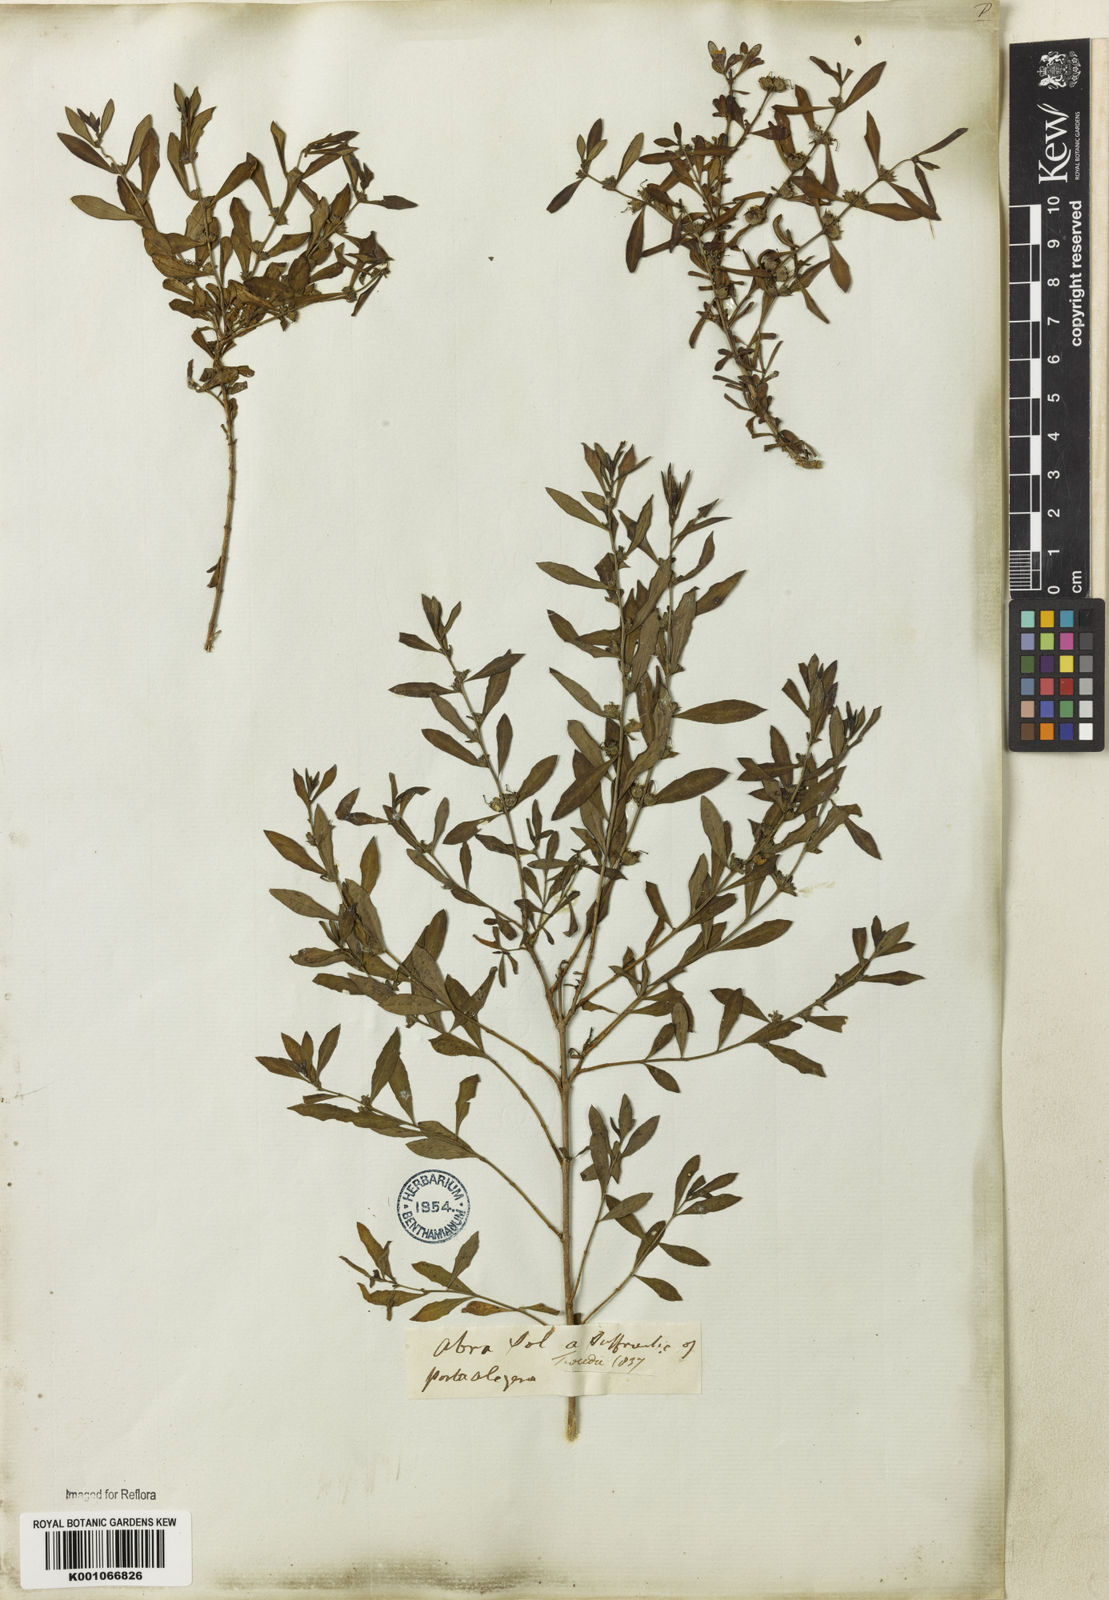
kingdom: Plantae
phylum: Tracheophyta
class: Magnoliopsida
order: Myrtales
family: Lythraceae
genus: Heimia
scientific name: Heimia apetala
